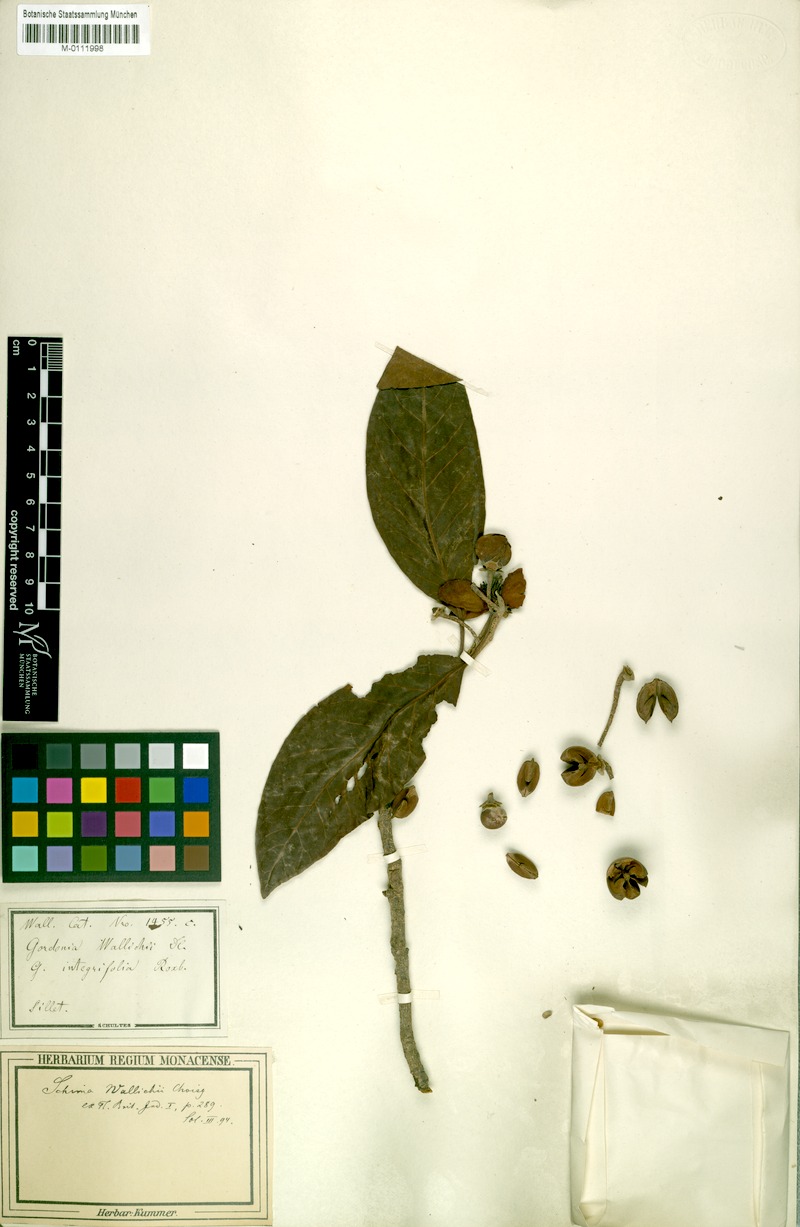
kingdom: Plantae
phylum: Tracheophyta
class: Magnoliopsida
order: Ericales
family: Theaceae
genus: Schima
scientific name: Schima wallichii
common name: Schima
